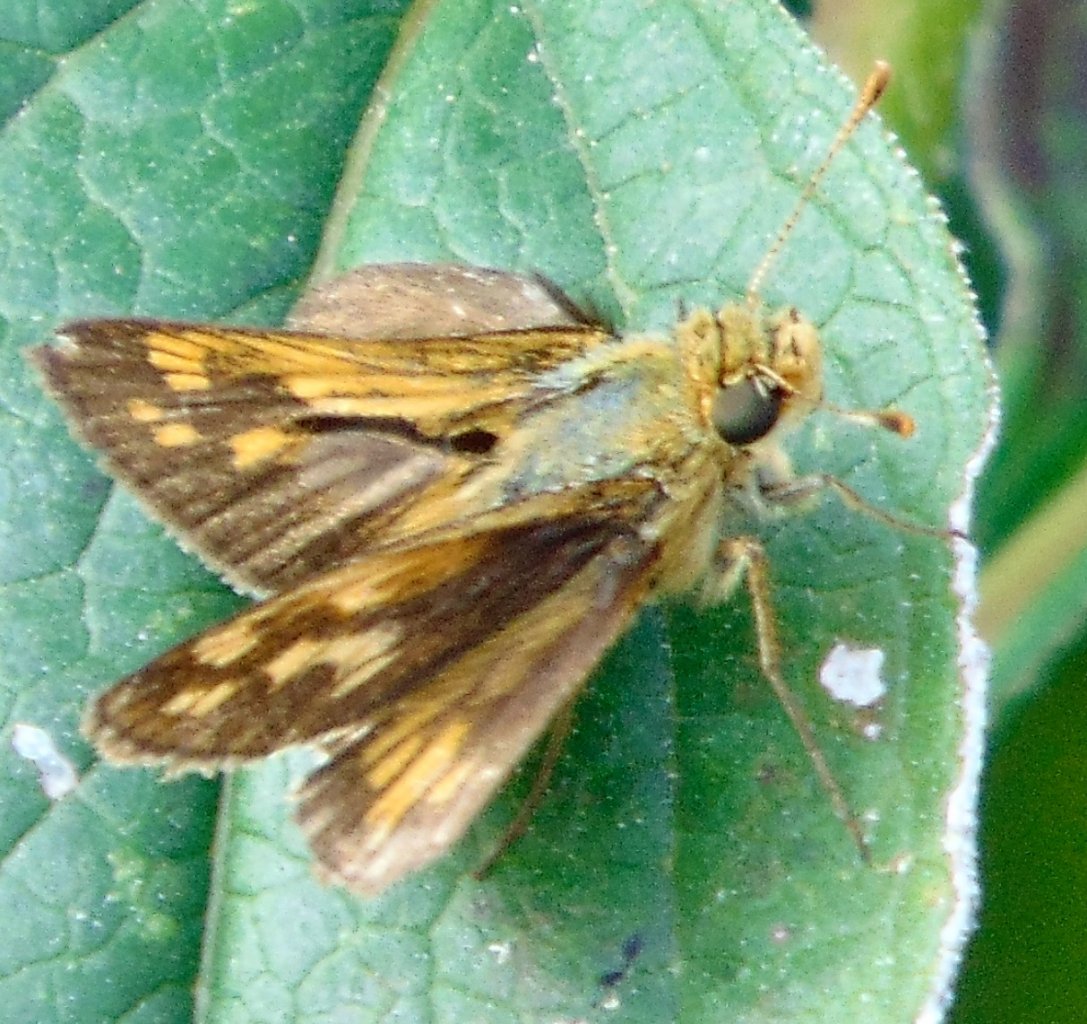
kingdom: Animalia
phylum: Arthropoda
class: Insecta
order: Lepidoptera
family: Hesperiidae
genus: Polites
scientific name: Polites coras
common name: Peck's Skipper
